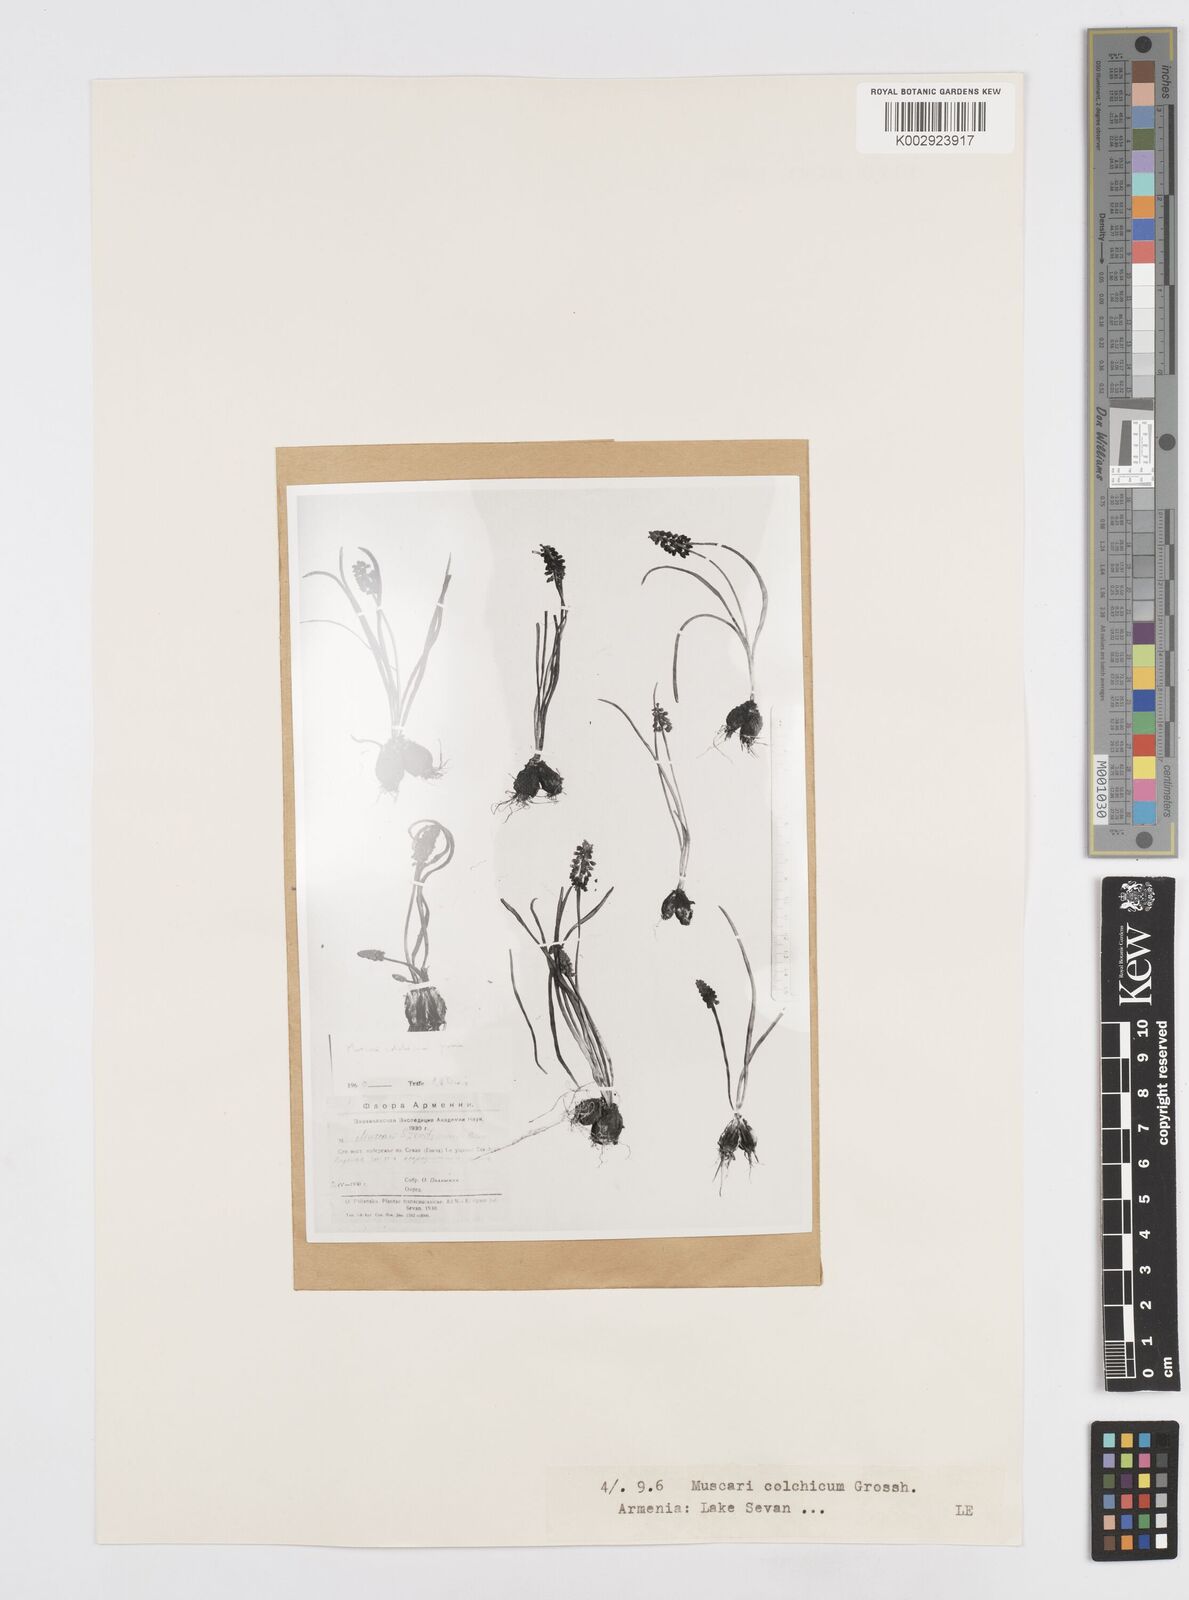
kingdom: Plantae
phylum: Tracheophyta
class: Liliopsida
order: Asparagales
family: Asparagaceae
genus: Muscari
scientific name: Muscari armeniacum
